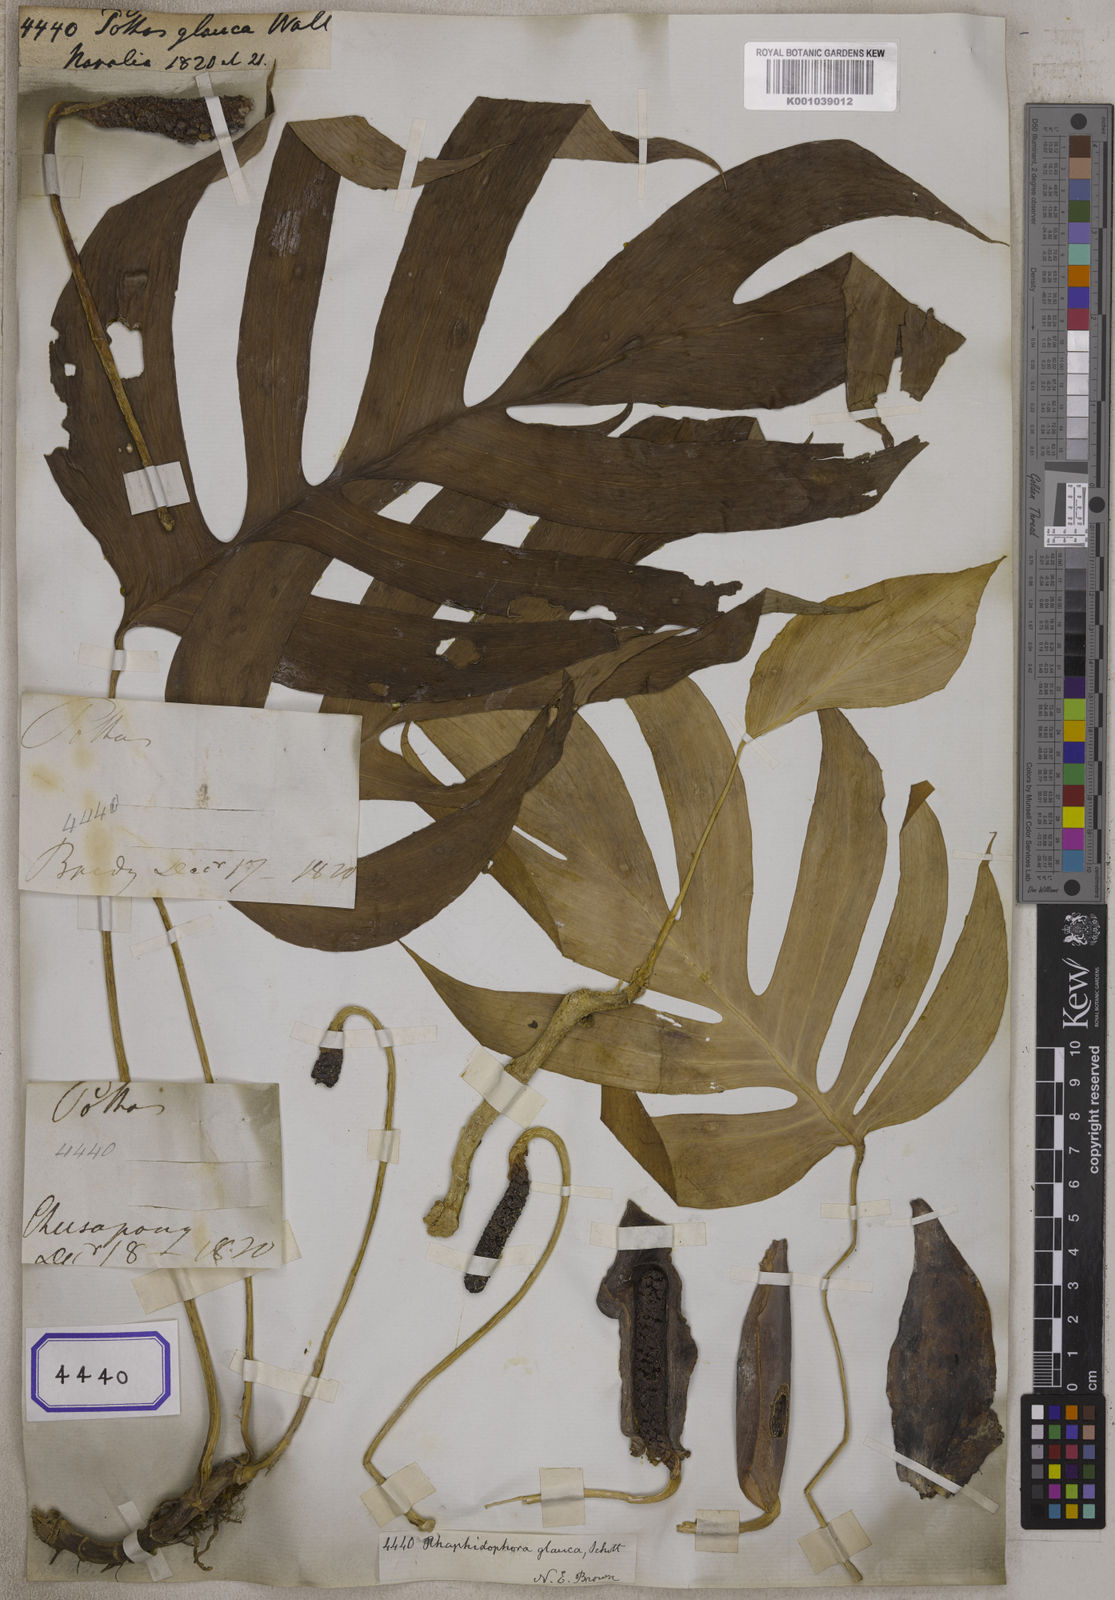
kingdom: Plantae
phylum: Tracheophyta
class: Liliopsida
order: Alismatales
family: Araceae
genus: Rhaphidophora
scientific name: Rhaphidophora glauca
